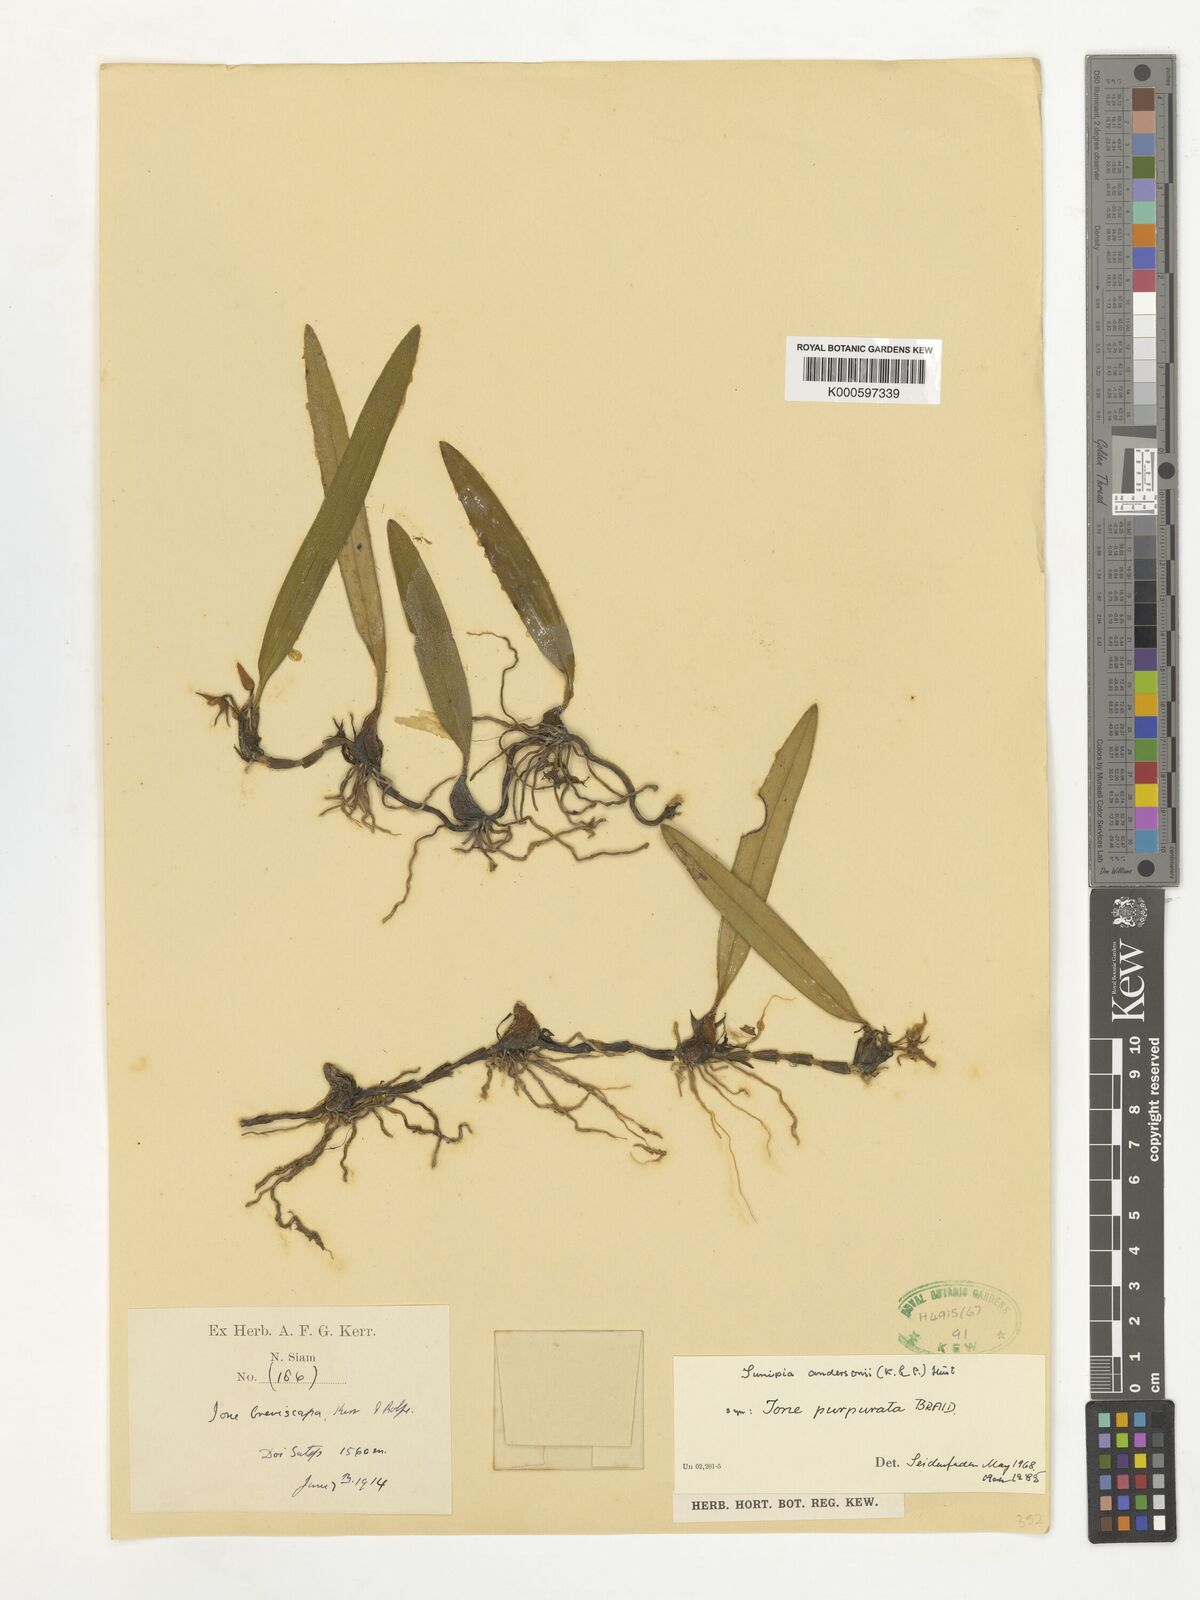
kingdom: Plantae
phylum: Tracheophyta
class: Liliopsida
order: Asparagales
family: Orchidaceae
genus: Bulbophyllum
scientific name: Bulbophyllum bifurcatoflorens
